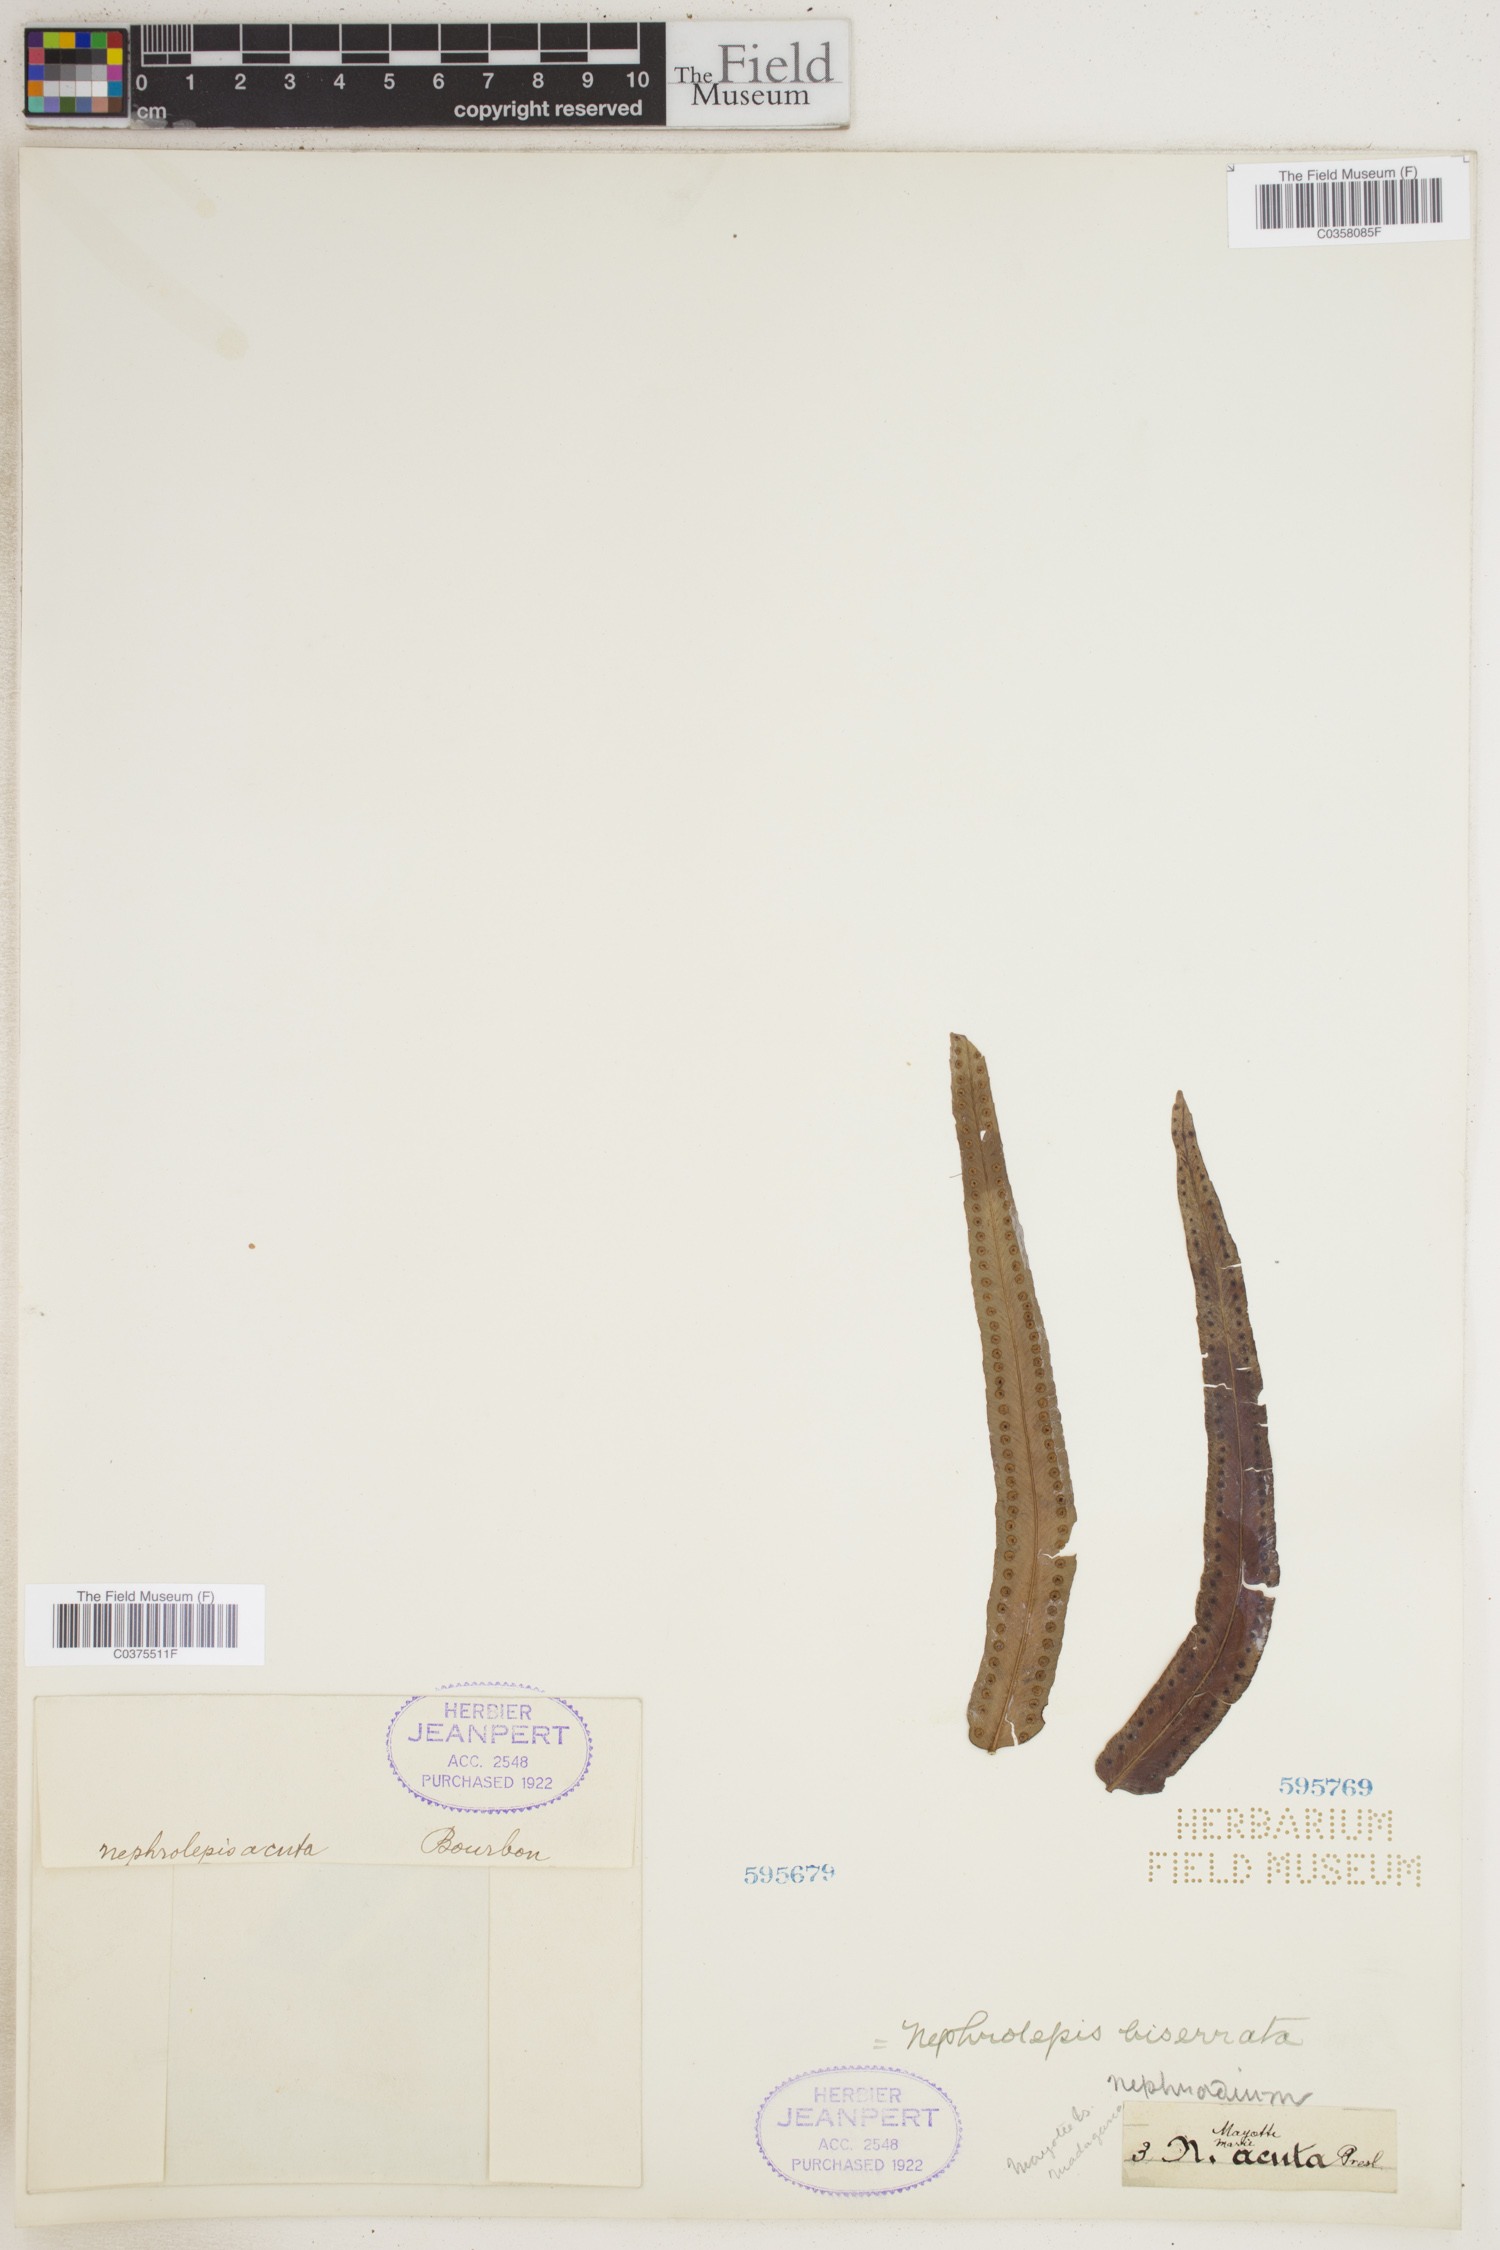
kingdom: Plantae
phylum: Tracheophyta
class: Polypodiopsida
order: Polypodiales
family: Nephrolepidaceae
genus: Nephrolepis
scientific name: Nephrolepis biserrata
